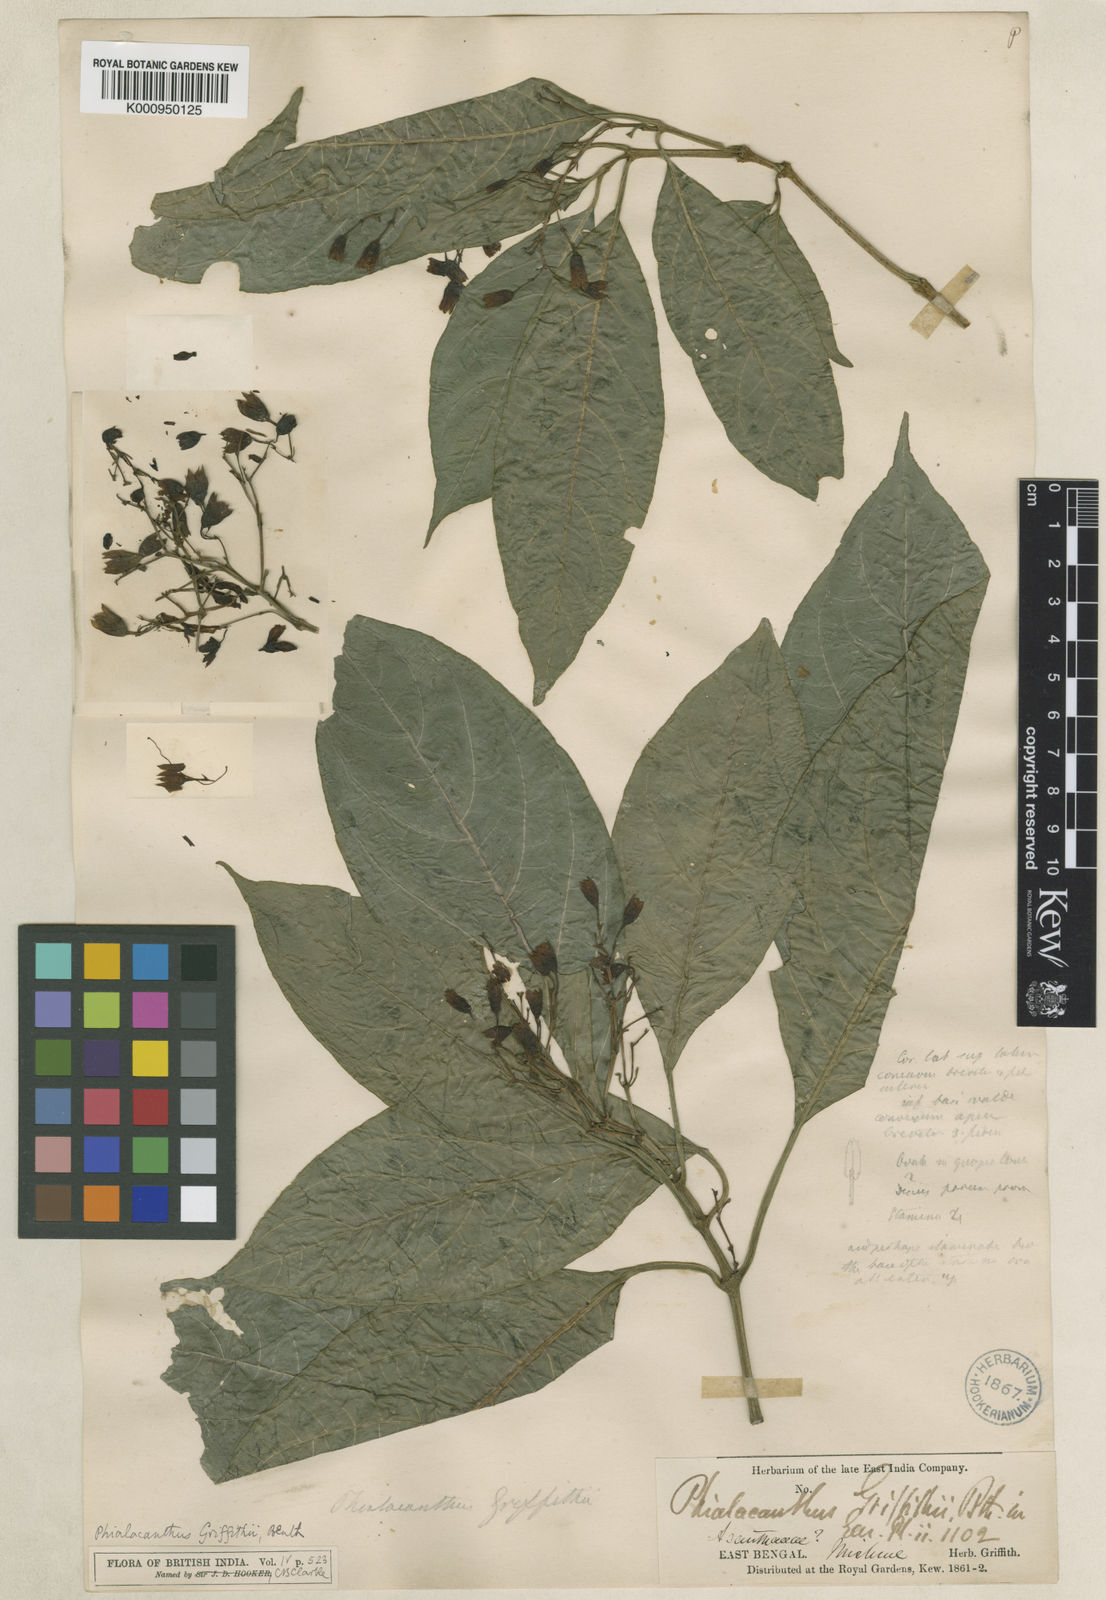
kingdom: Plantae
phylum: Tracheophyta
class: Magnoliopsida
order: Lamiales
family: Acanthaceae
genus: Phialacanthus
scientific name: Phialacanthus
